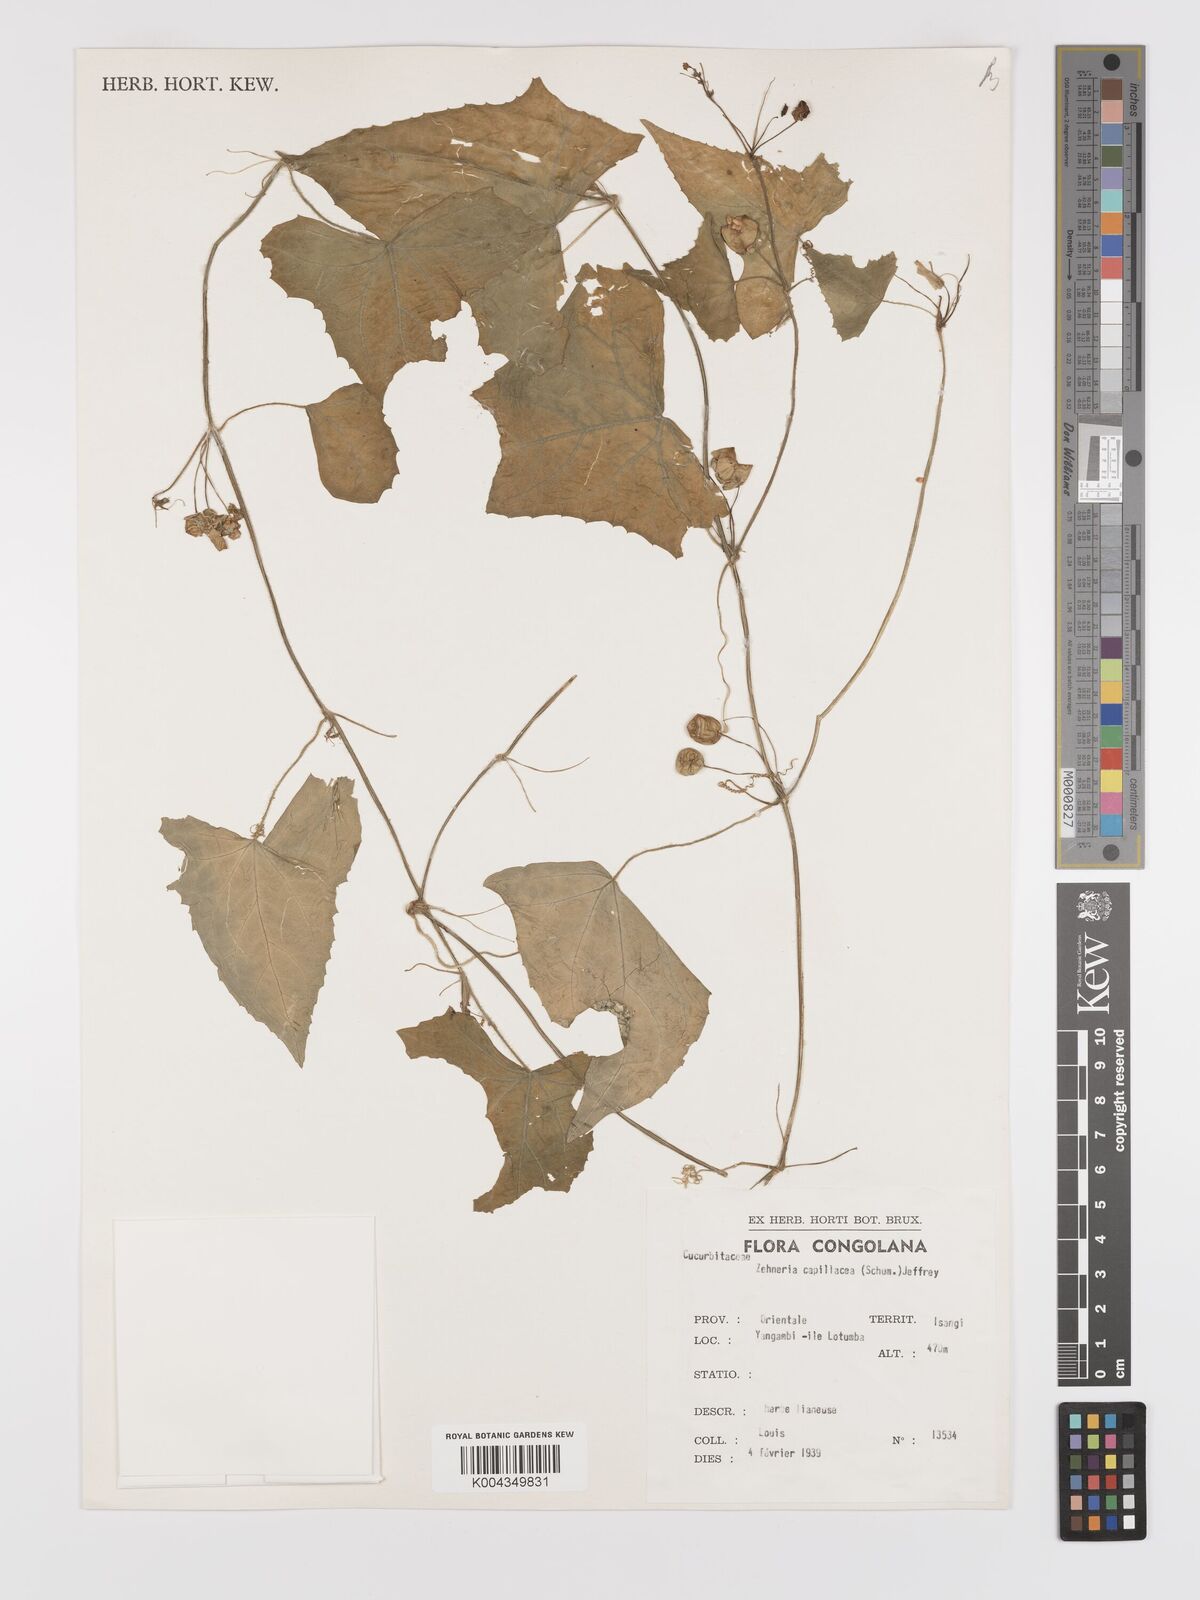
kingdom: Plantae
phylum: Tracheophyta
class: Magnoliopsida
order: Cucurbitales
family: Cucurbitaceae
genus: Zehneria
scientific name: Zehneria capillacea
